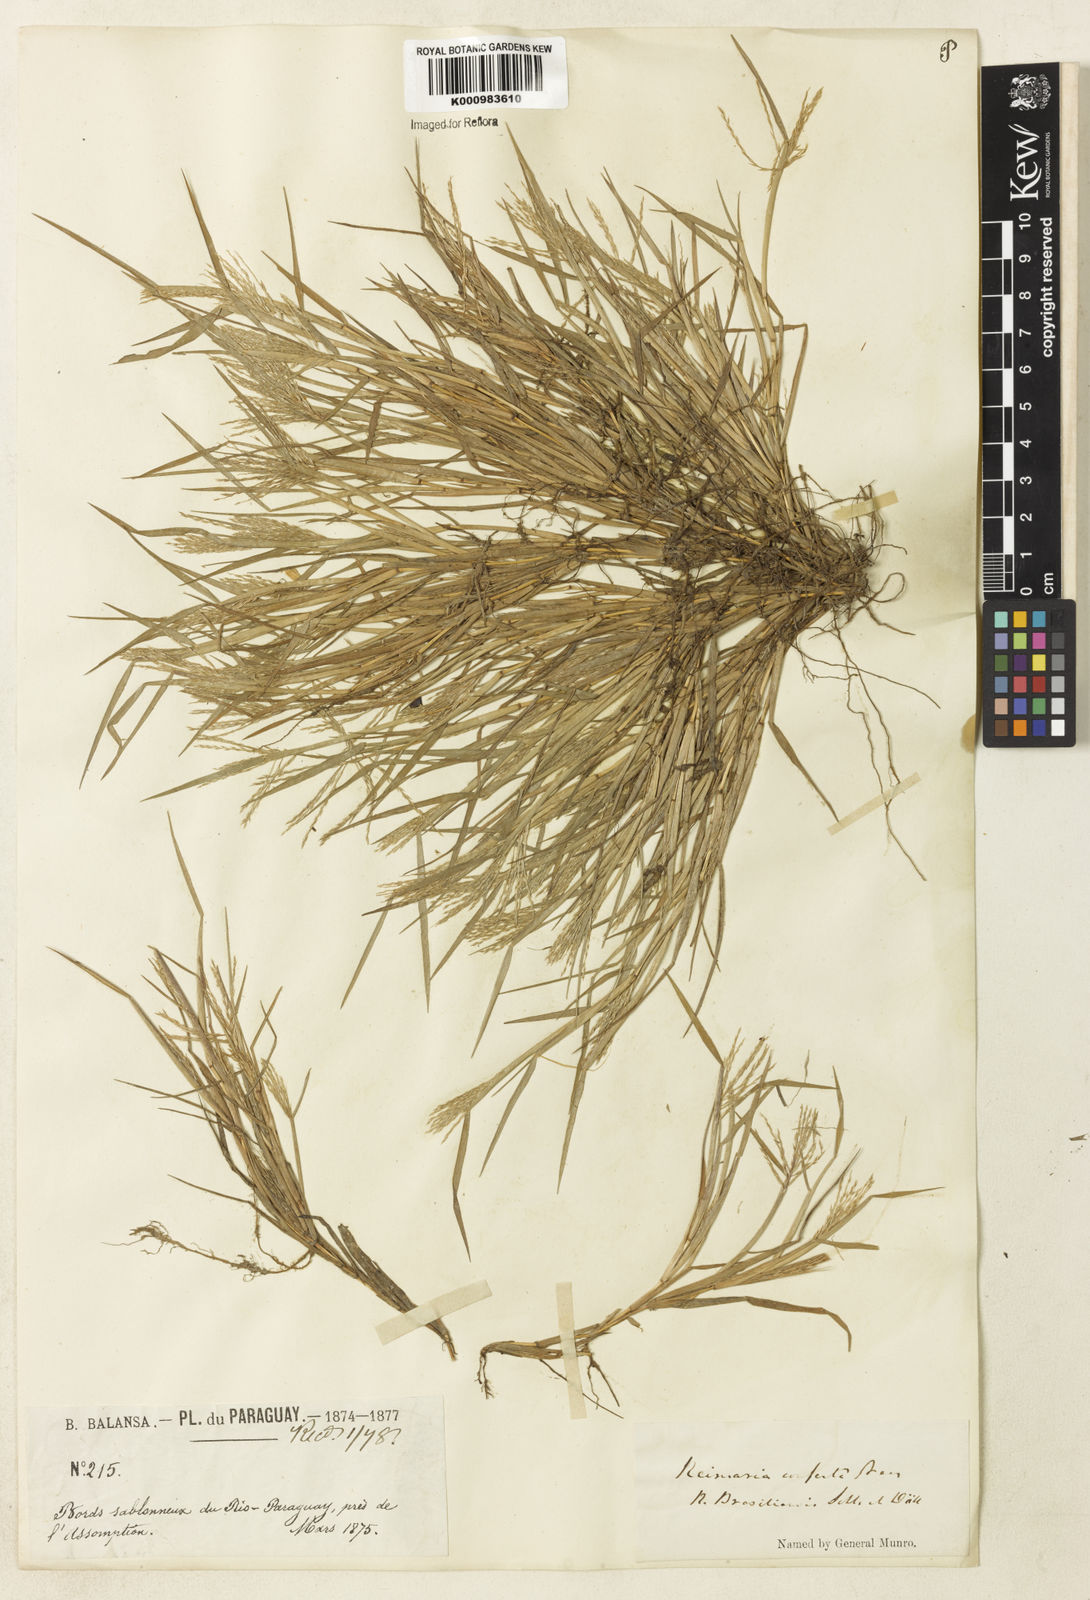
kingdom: Plantae
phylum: Tracheophyta
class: Liliopsida
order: Poales
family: Poaceae
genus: Paspalum
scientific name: Paspalum
